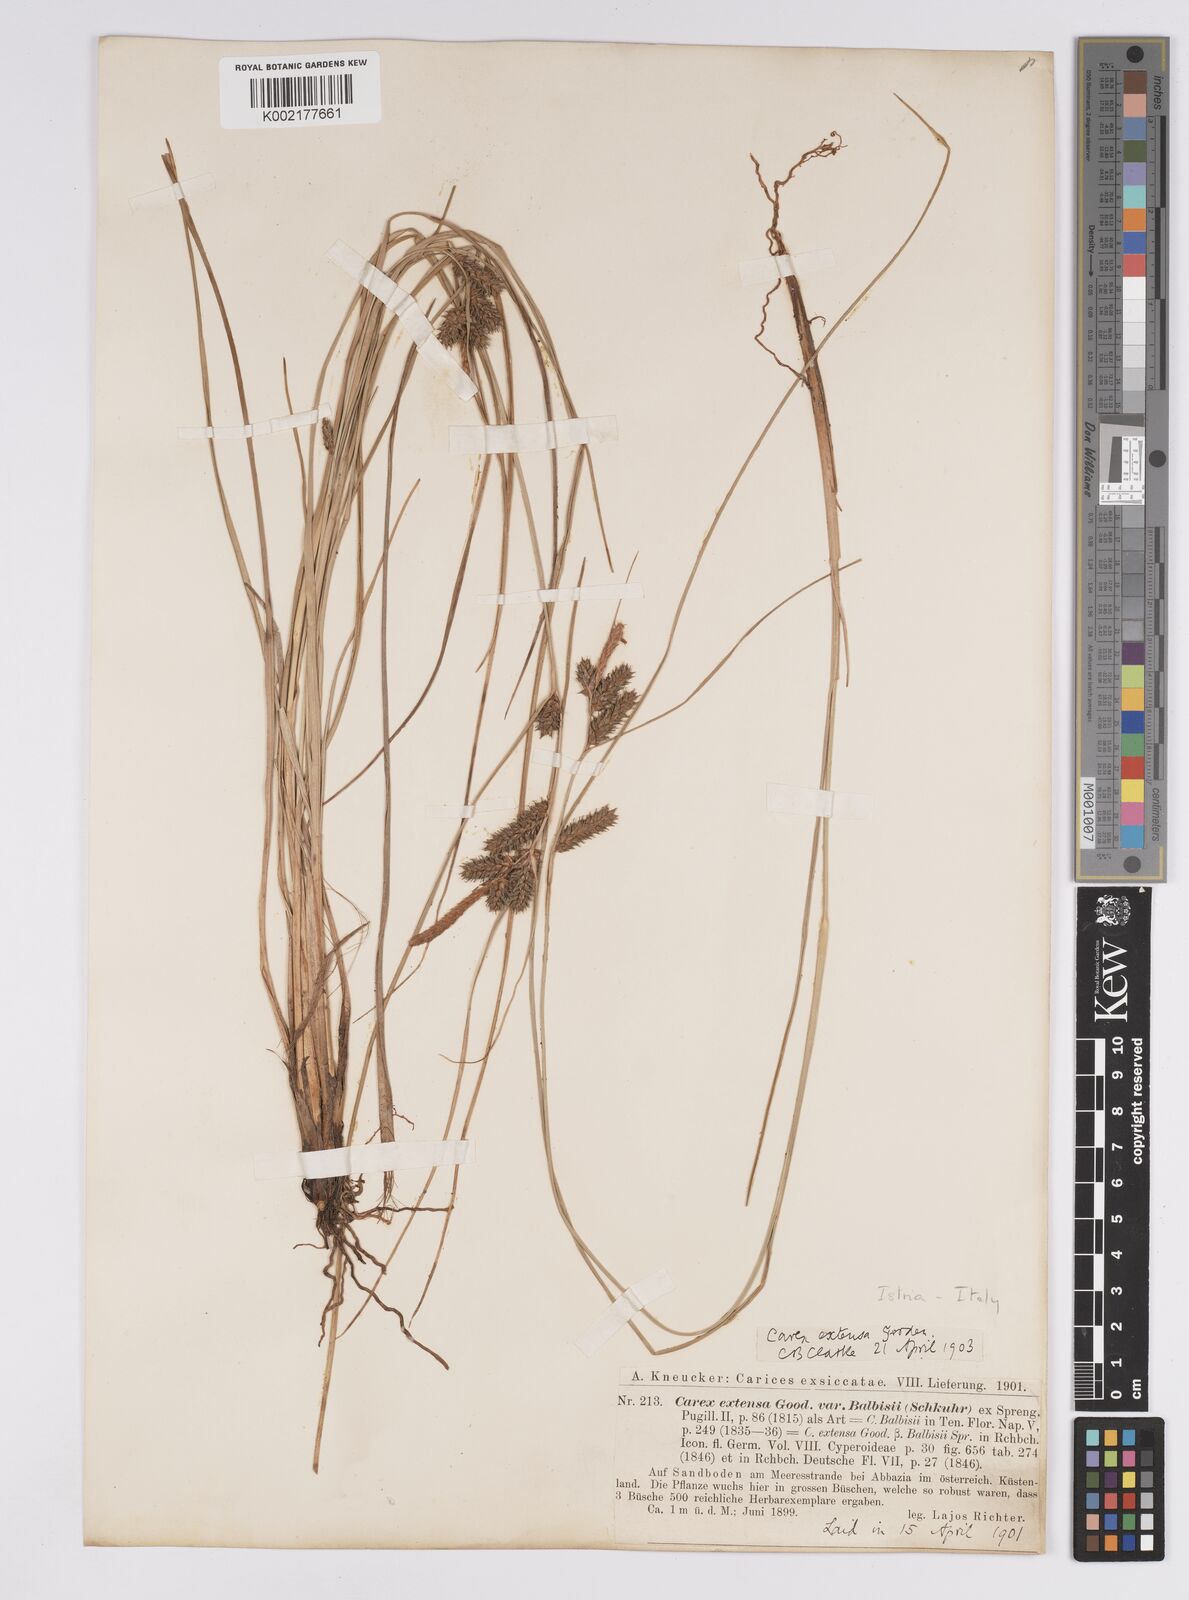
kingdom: Plantae
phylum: Tracheophyta
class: Liliopsida
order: Poales
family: Cyperaceae
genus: Carex
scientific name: Carex extensa
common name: Long-bracted sedge
